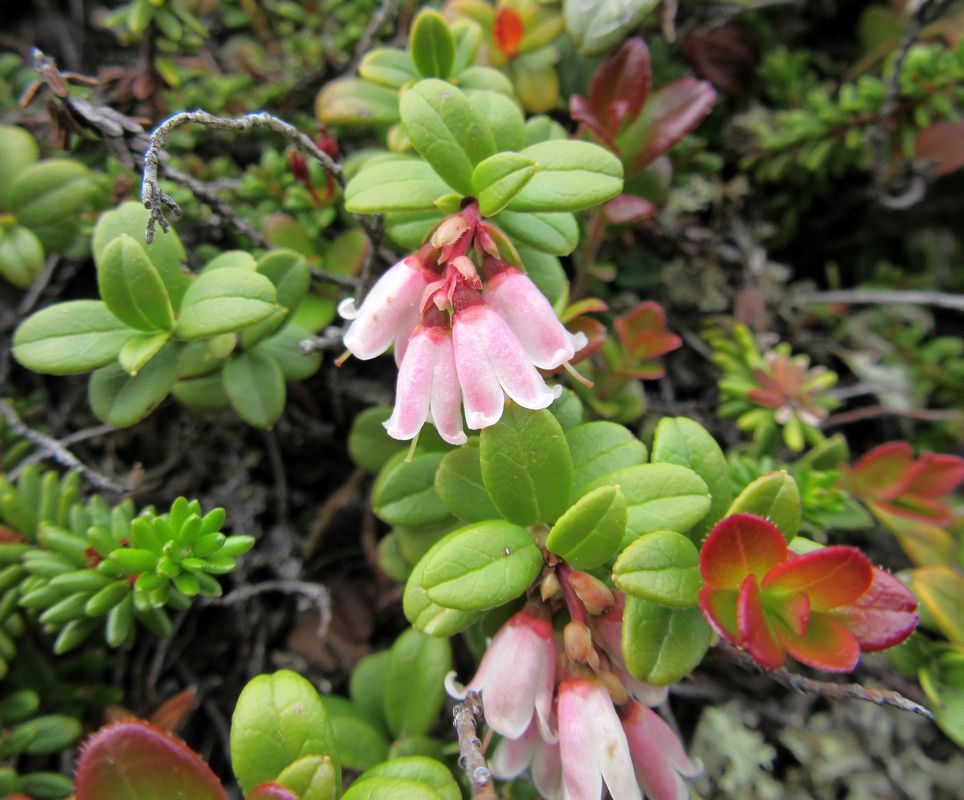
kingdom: Plantae
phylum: Tracheophyta
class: Magnoliopsida
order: Ericales
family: Ericaceae
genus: Vaccinium
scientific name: Vaccinium vitis-idaea
